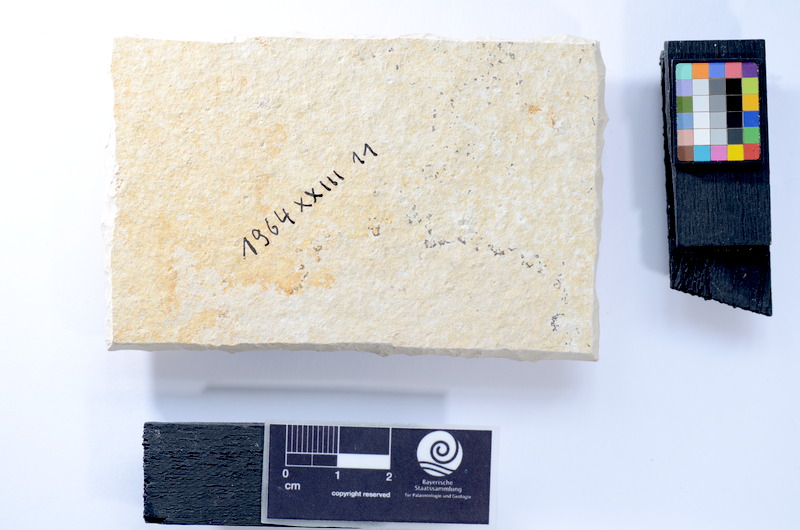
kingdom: Animalia
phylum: Chordata
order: Salmoniformes
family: Orthogonikleithridae
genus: Leptolepides
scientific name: Leptolepides sprattiformis
